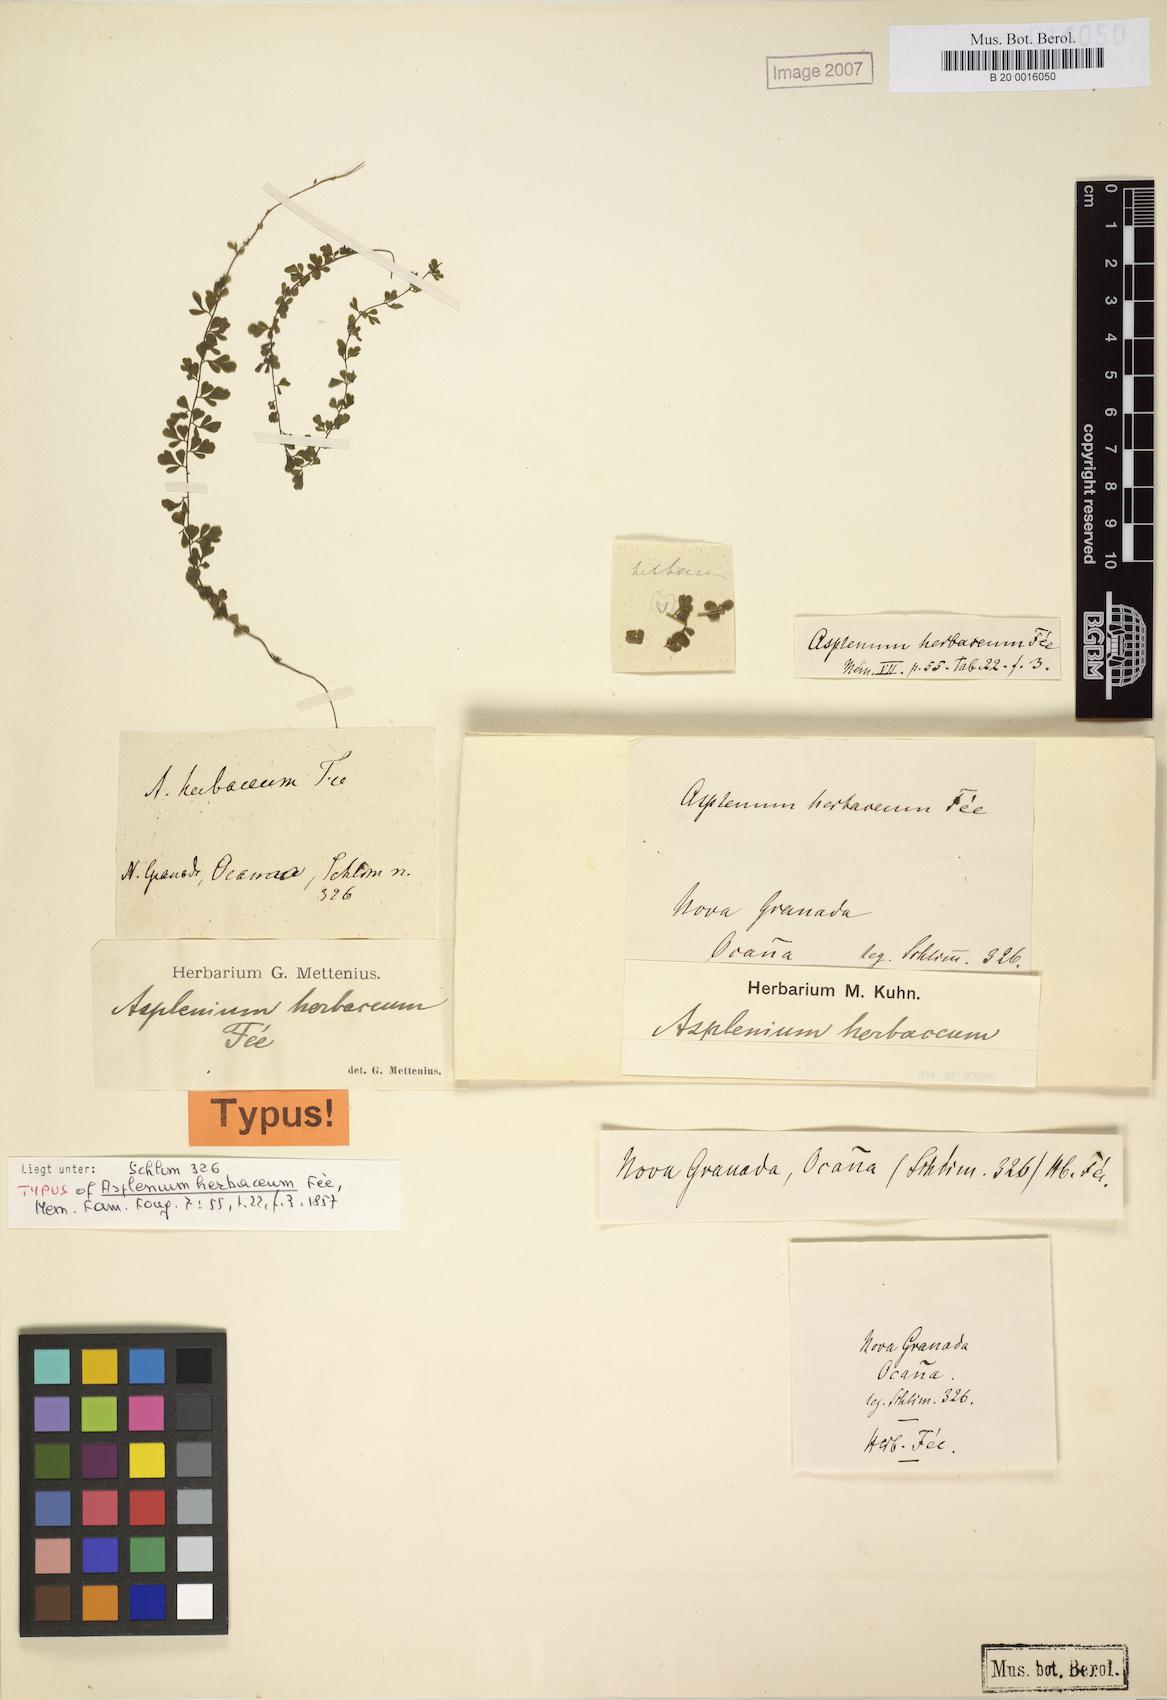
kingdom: Plantae
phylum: Tracheophyta
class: Polypodiopsida
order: Polypodiales
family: Aspleniaceae
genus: Asplenium
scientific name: Asplenium triphyllum
